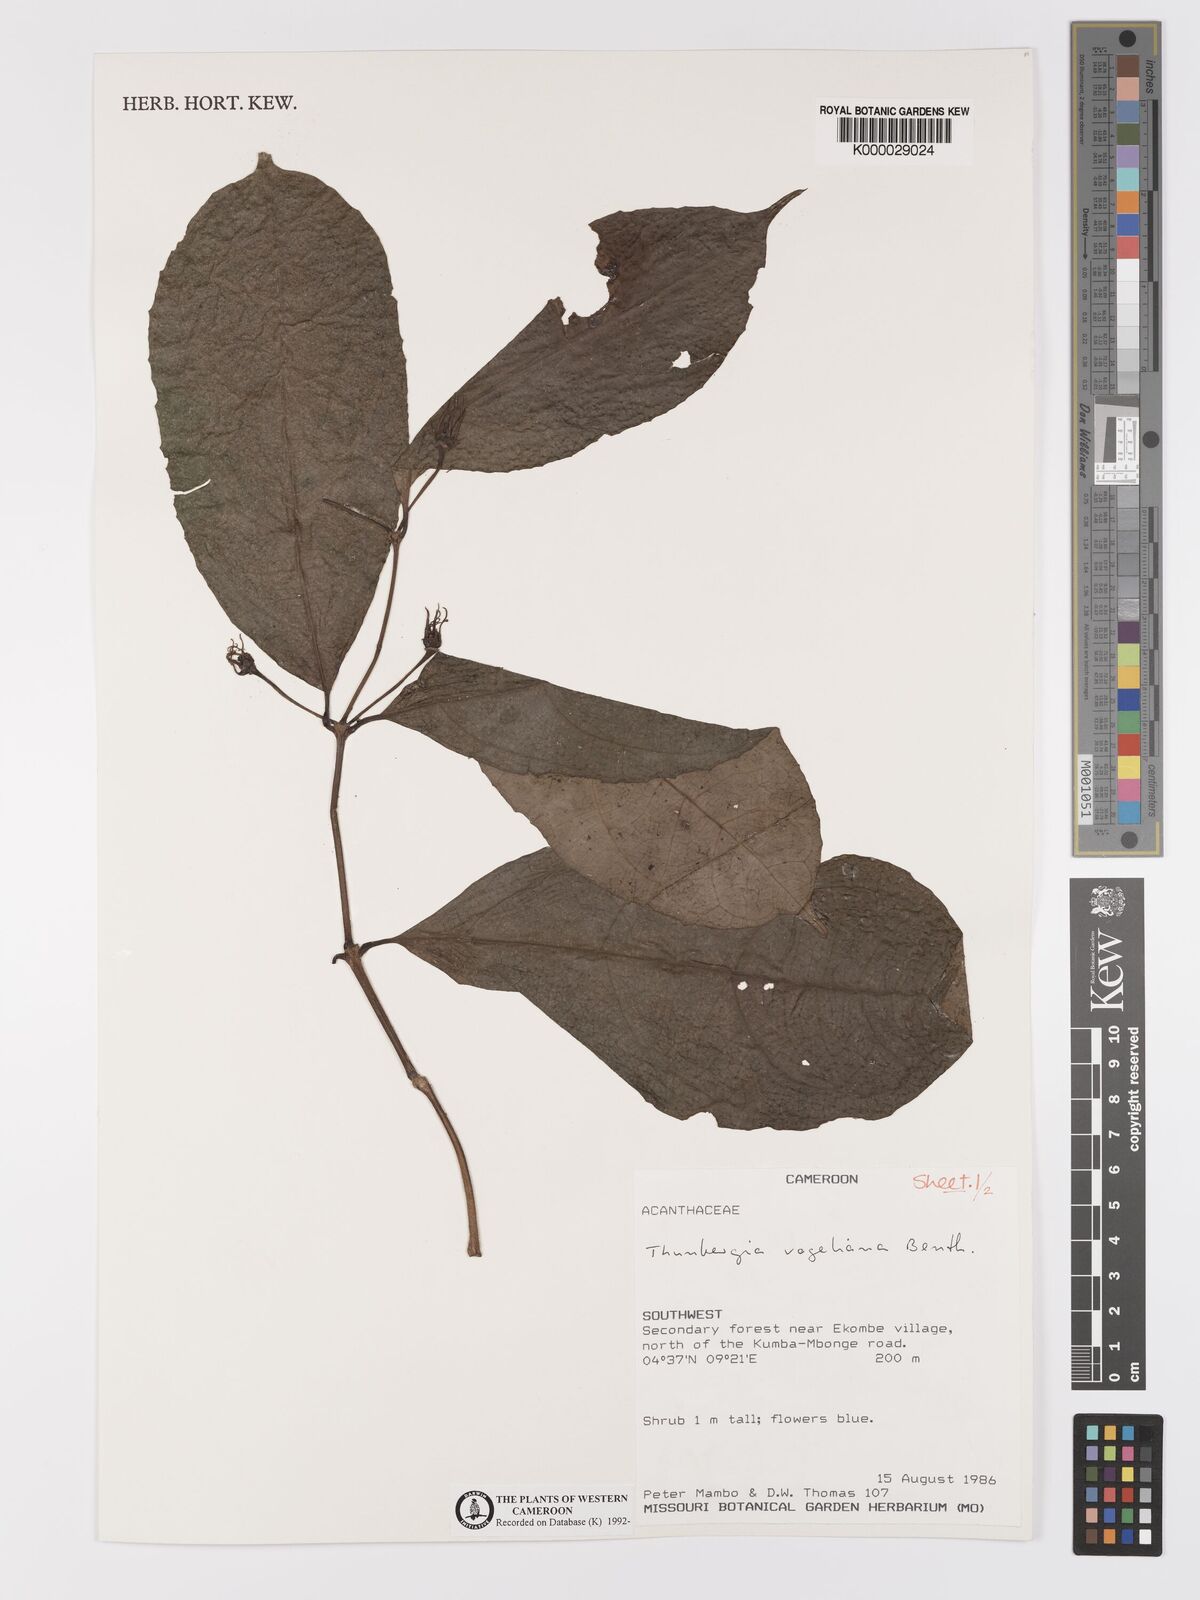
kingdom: Plantae
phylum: Tracheophyta
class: Magnoliopsida
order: Lamiales
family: Acanthaceae
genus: Thunbergia
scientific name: Thunbergia vogeliana
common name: Acanthaceae
